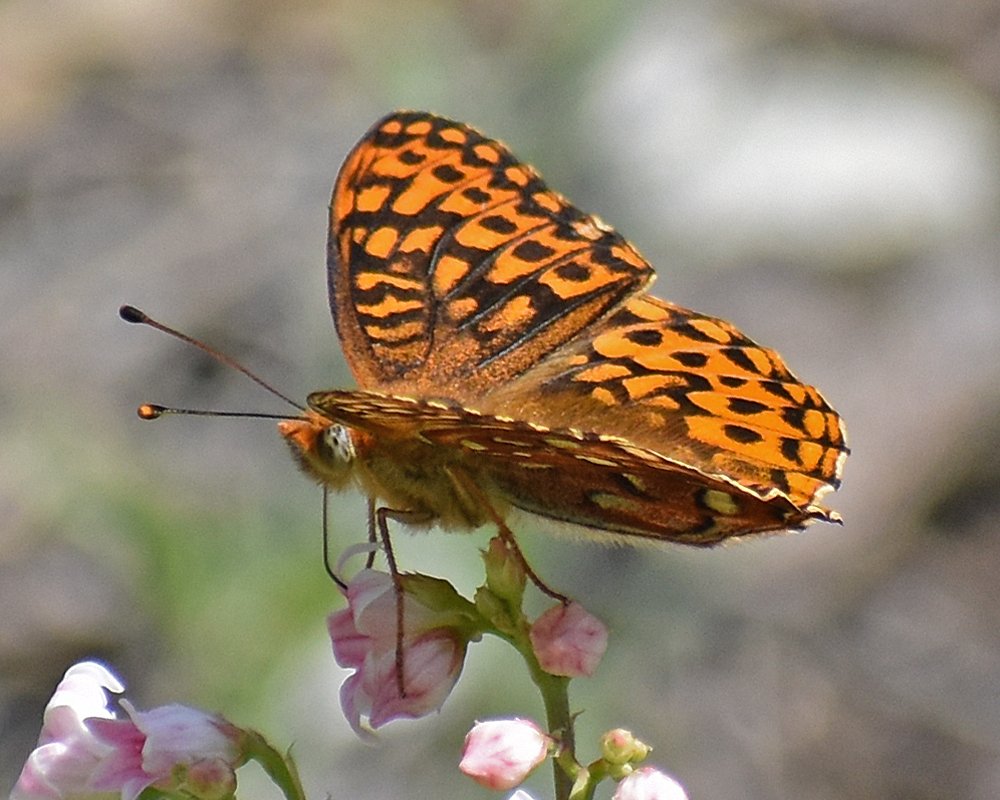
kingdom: Animalia
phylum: Arthropoda
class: Insecta
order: Lepidoptera
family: Nymphalidae
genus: Speyeria
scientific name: Speyeria hydaspe
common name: Hydaspe Fritillary
